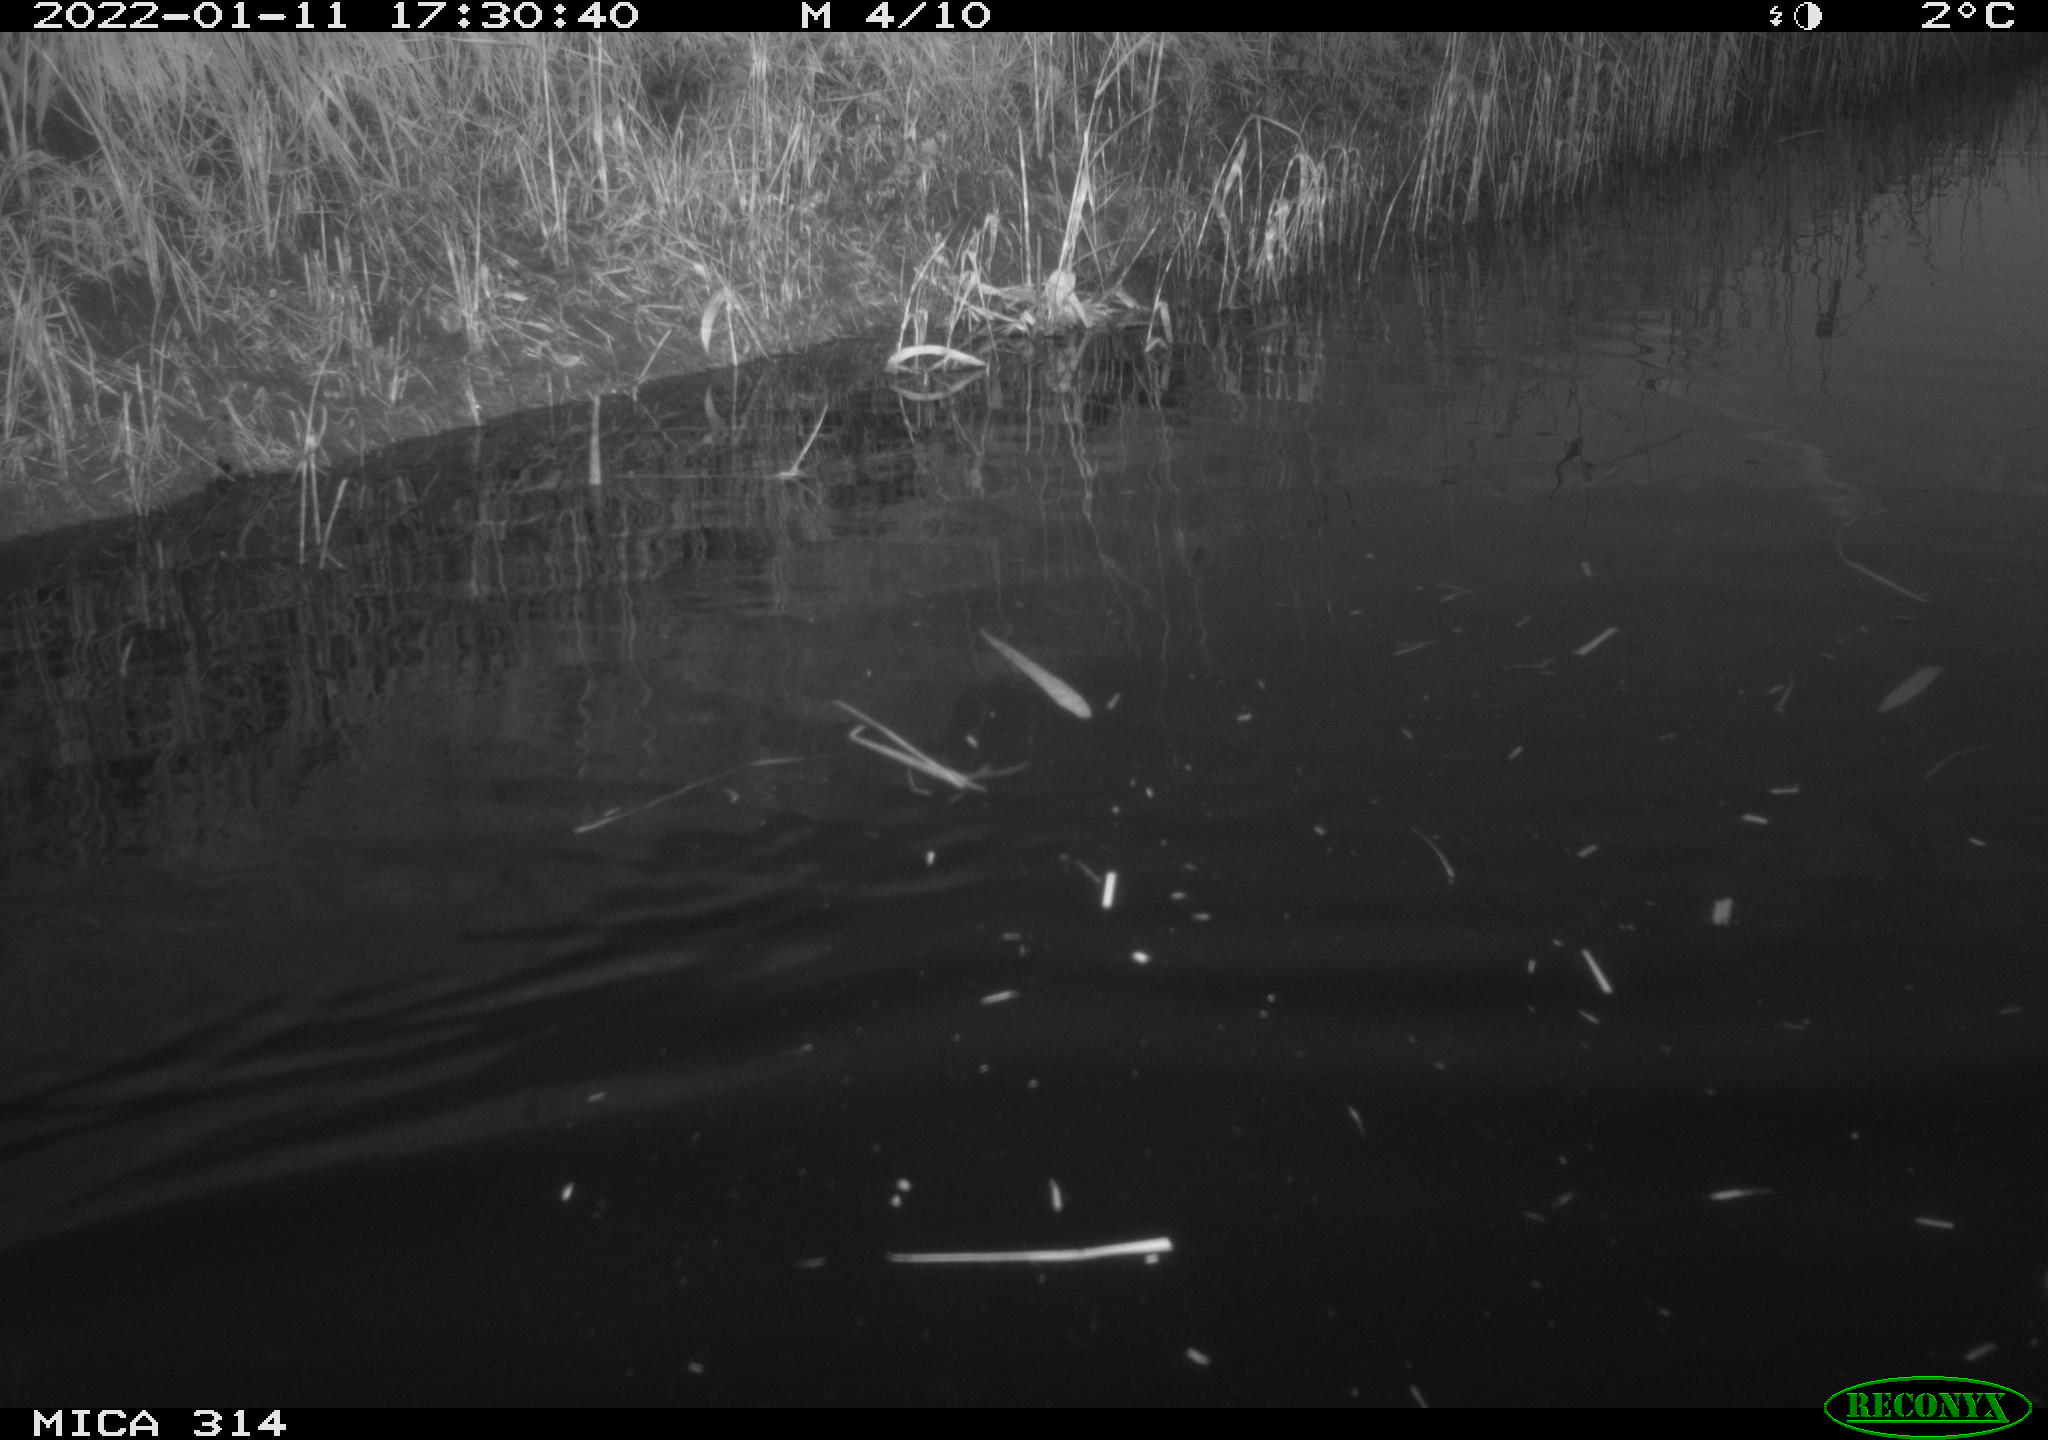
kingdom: Animalia
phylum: Chordata
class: Aves
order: Gruiformes
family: Rallidae
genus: Gallinula
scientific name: Gallinula chloropus
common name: Common moorhen
